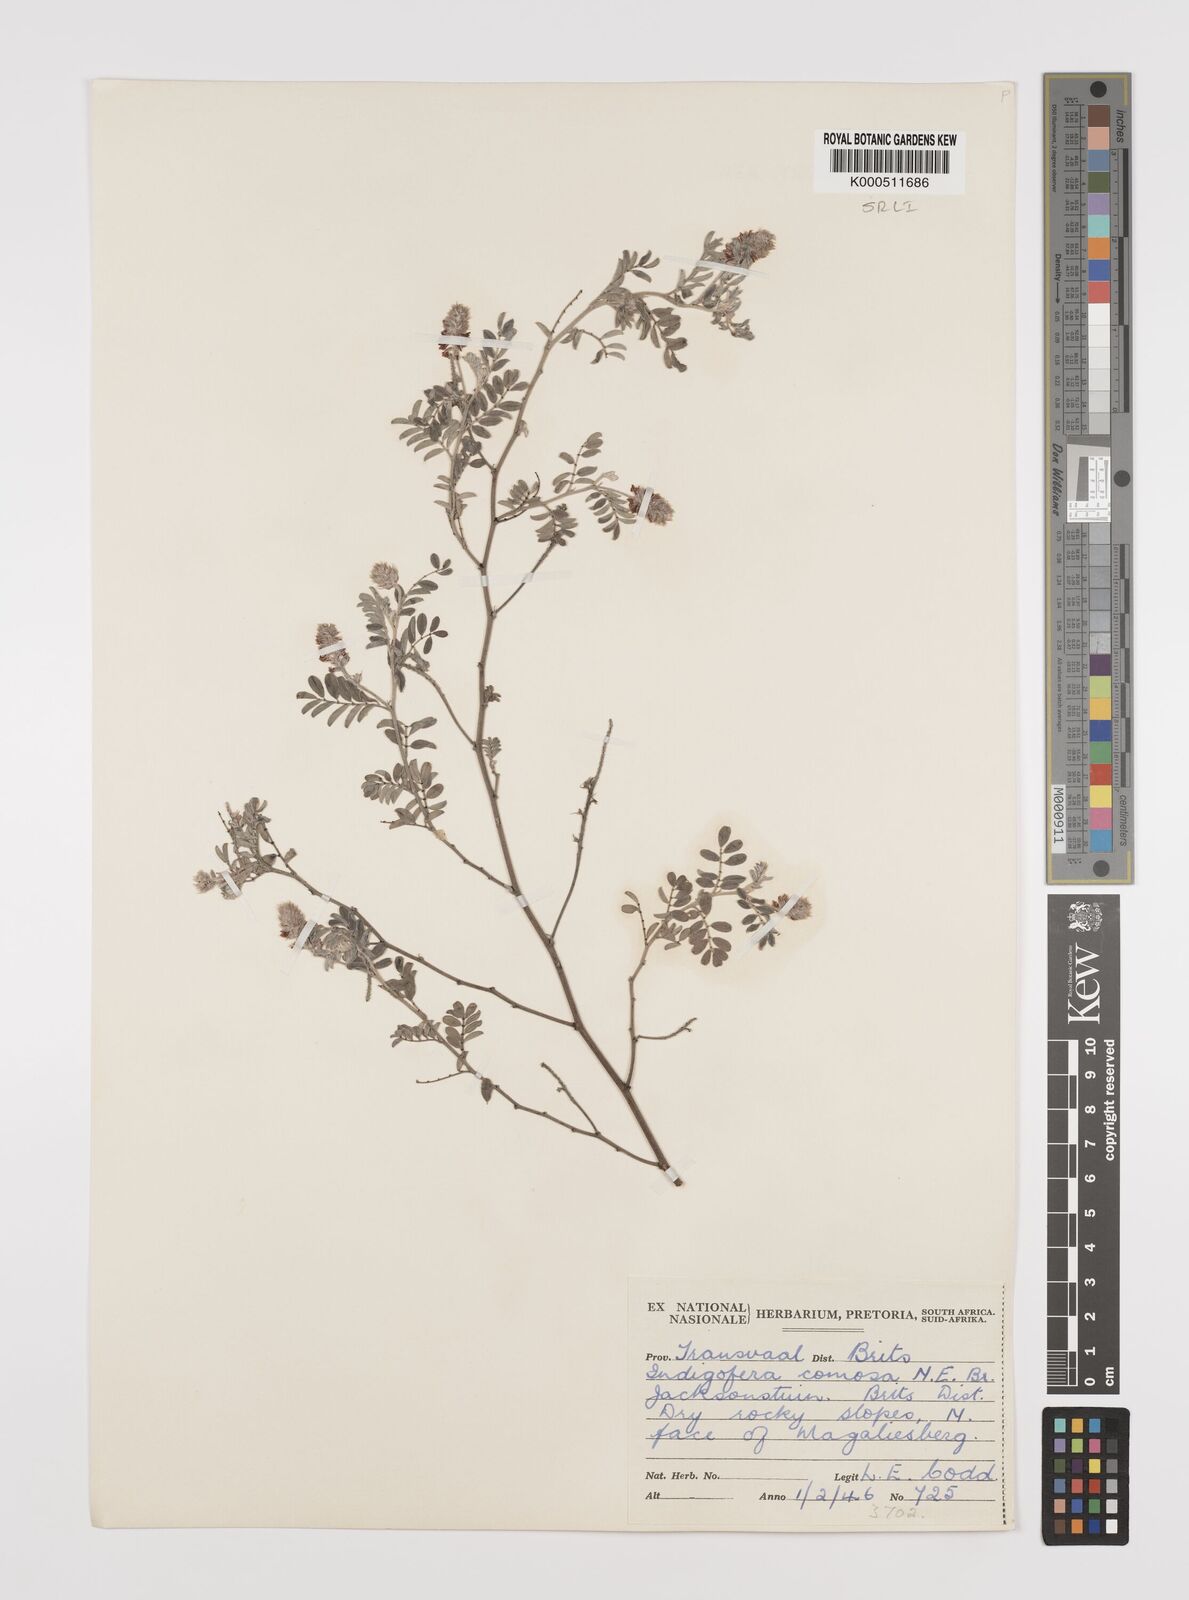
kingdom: Plantae
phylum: Tracheophyta
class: Magnoliopsida
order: Fabales
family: Fabaceae
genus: Indigofera
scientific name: Indigofera melanadenia
